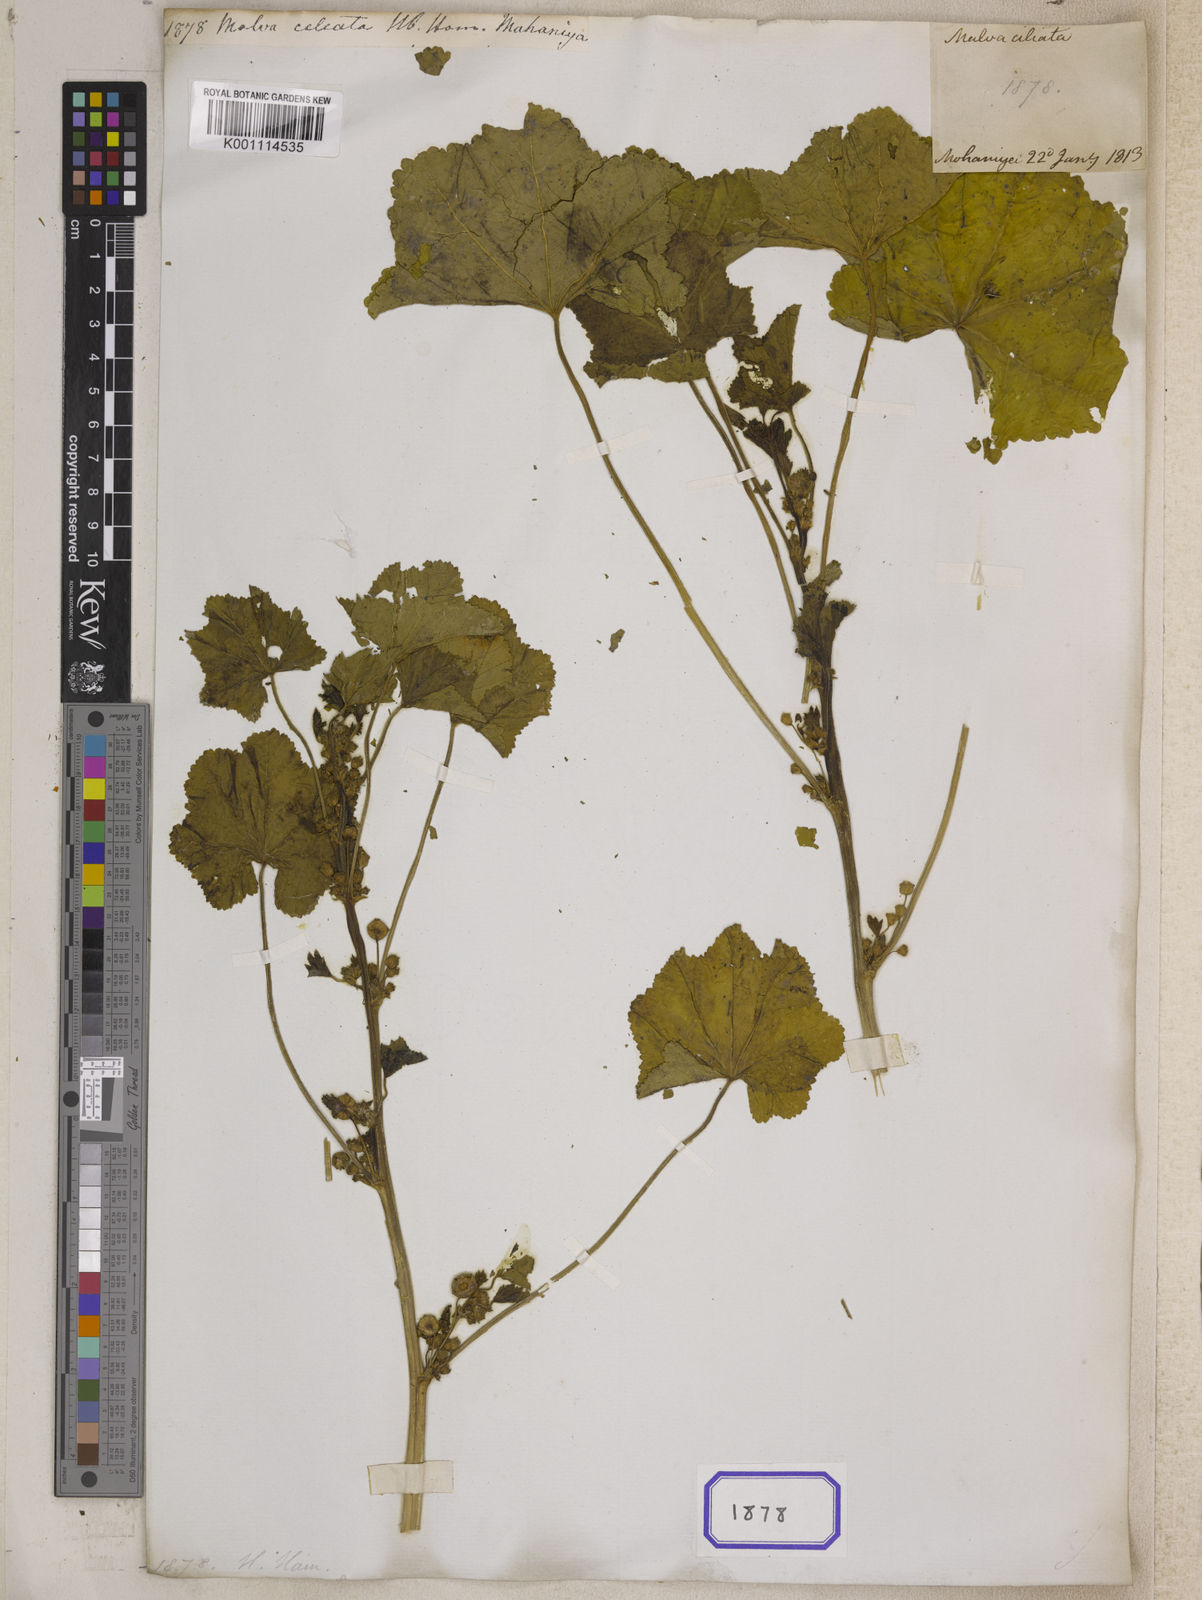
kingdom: Plantae
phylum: Tracheophyta
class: Magnoliopsida
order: Malvales
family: Malvaceae
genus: Malva
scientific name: Malva sylvestris
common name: Common mallow
